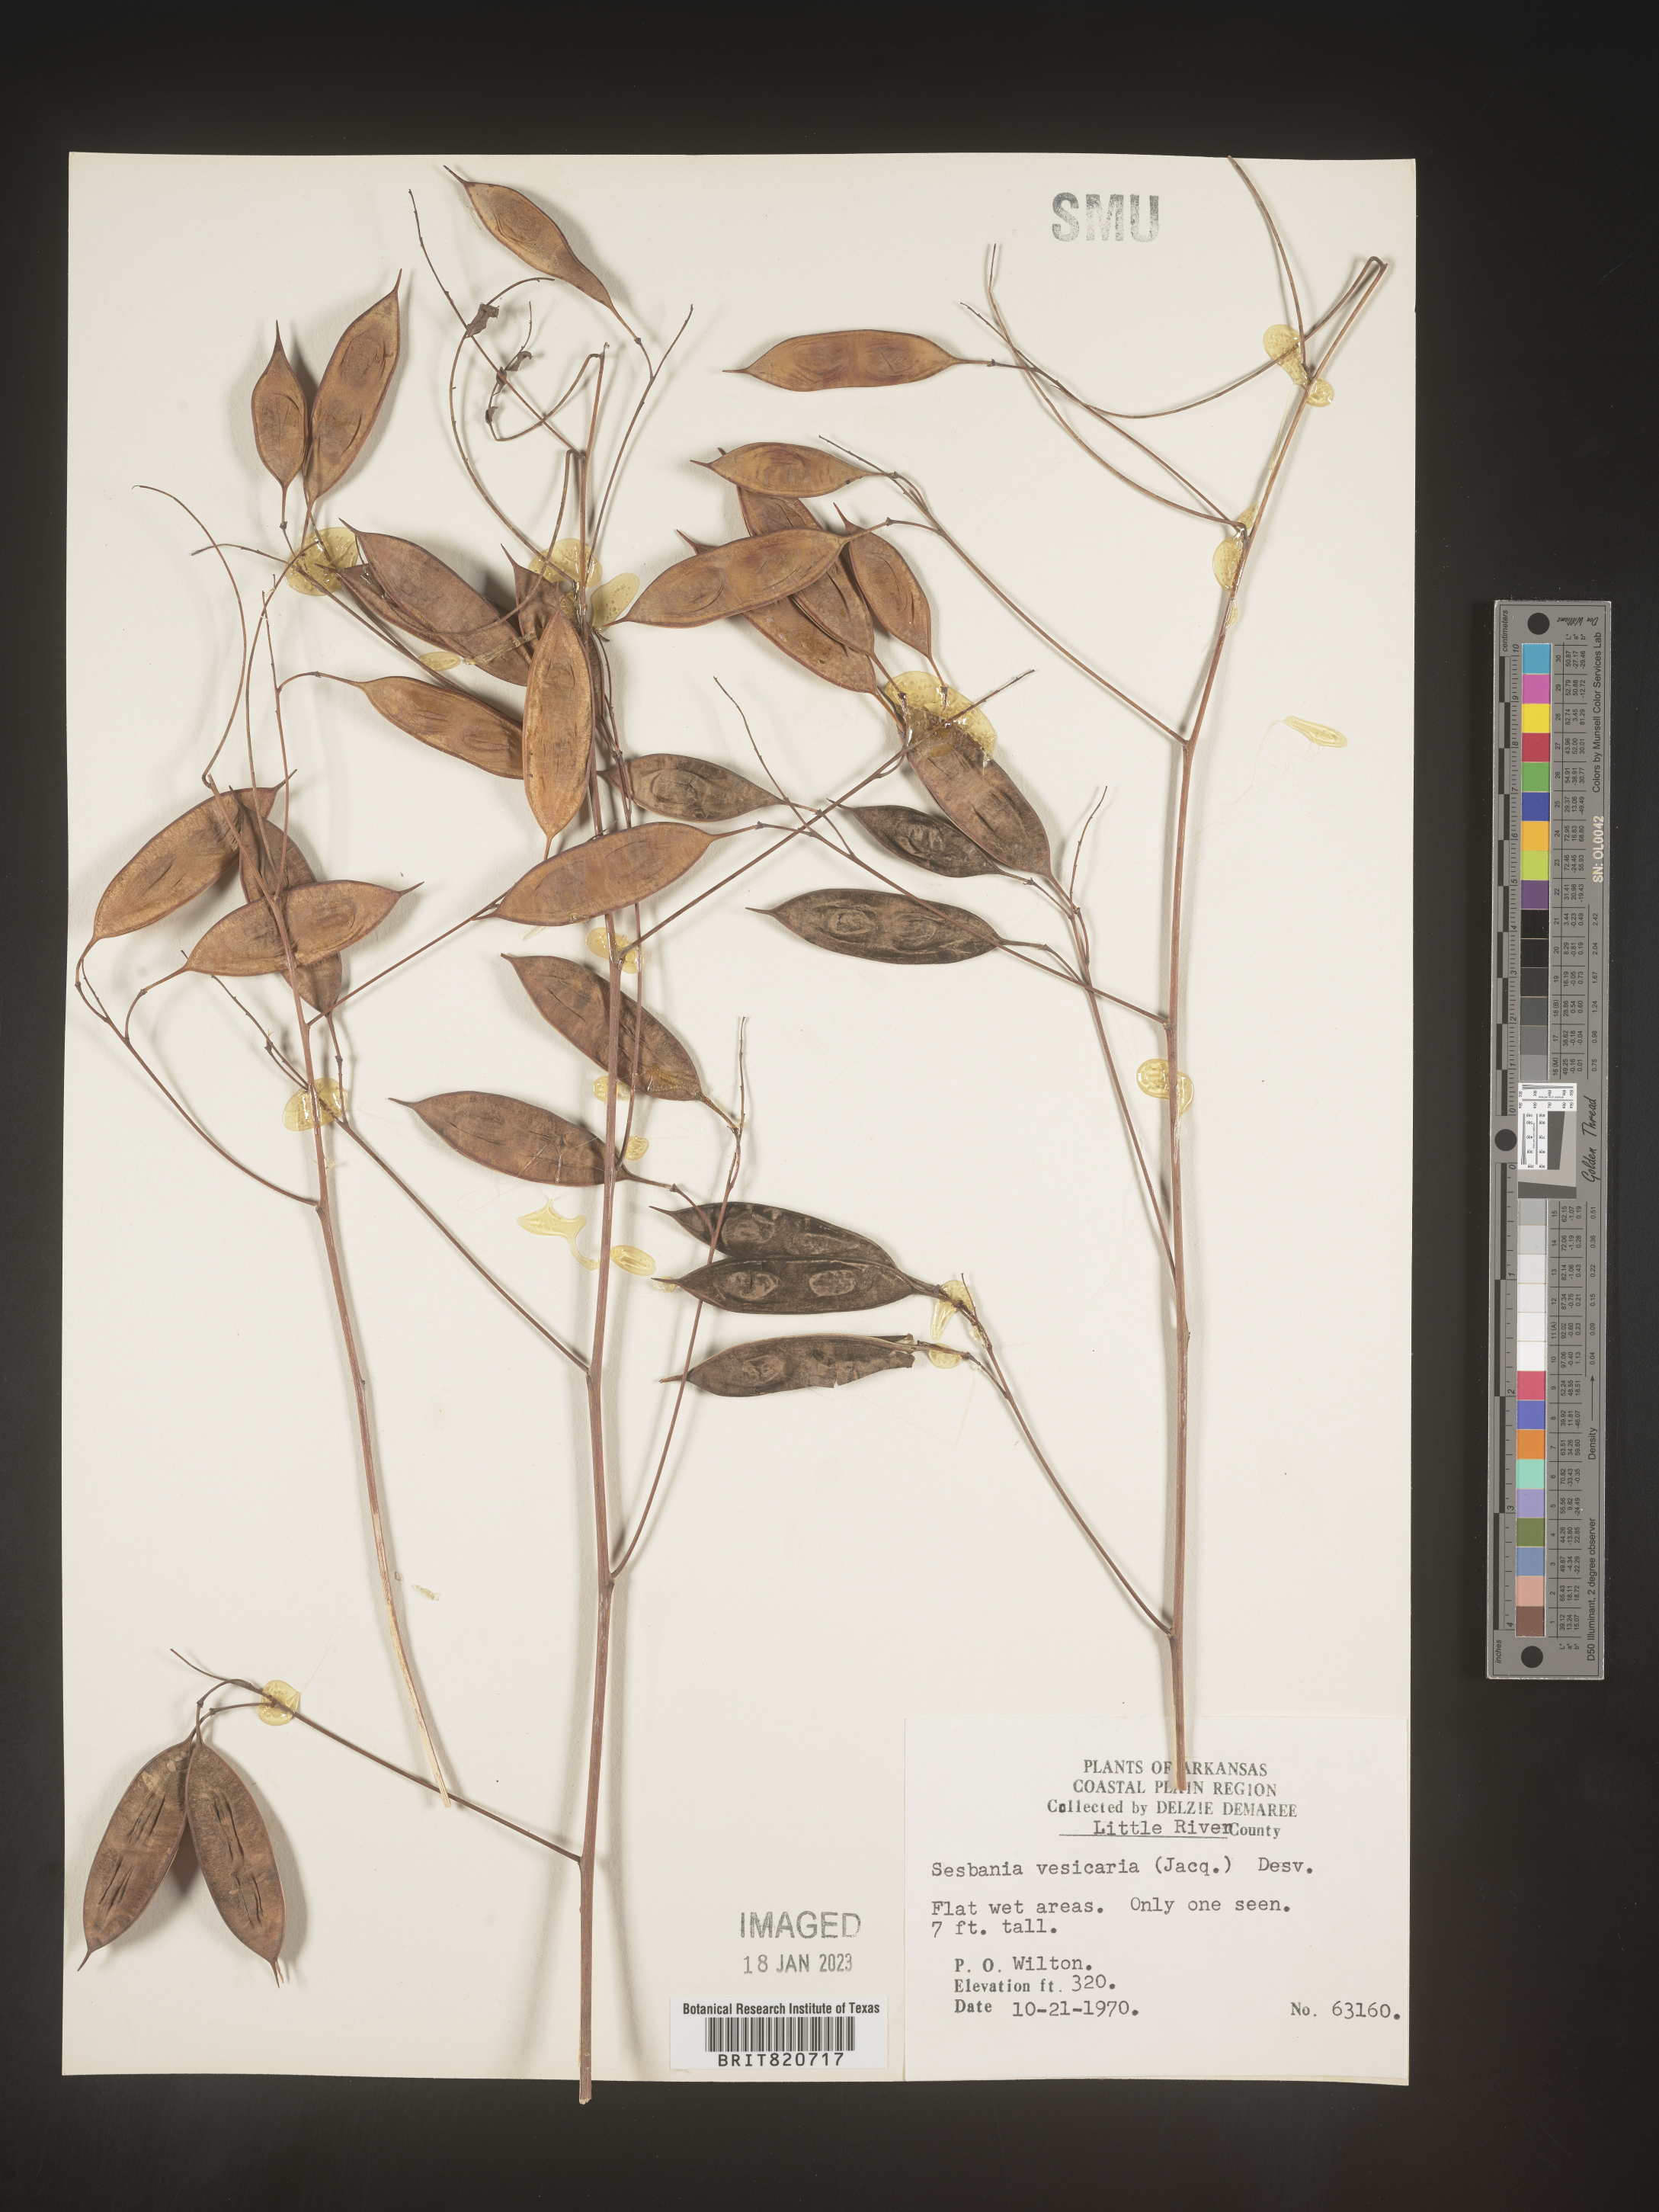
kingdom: Plantae
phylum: Tracheophyta
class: Magnoliopsida
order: Fabales
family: Fabaceae
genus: Sesbania
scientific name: Sesbania vesicaria
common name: Bagpod
